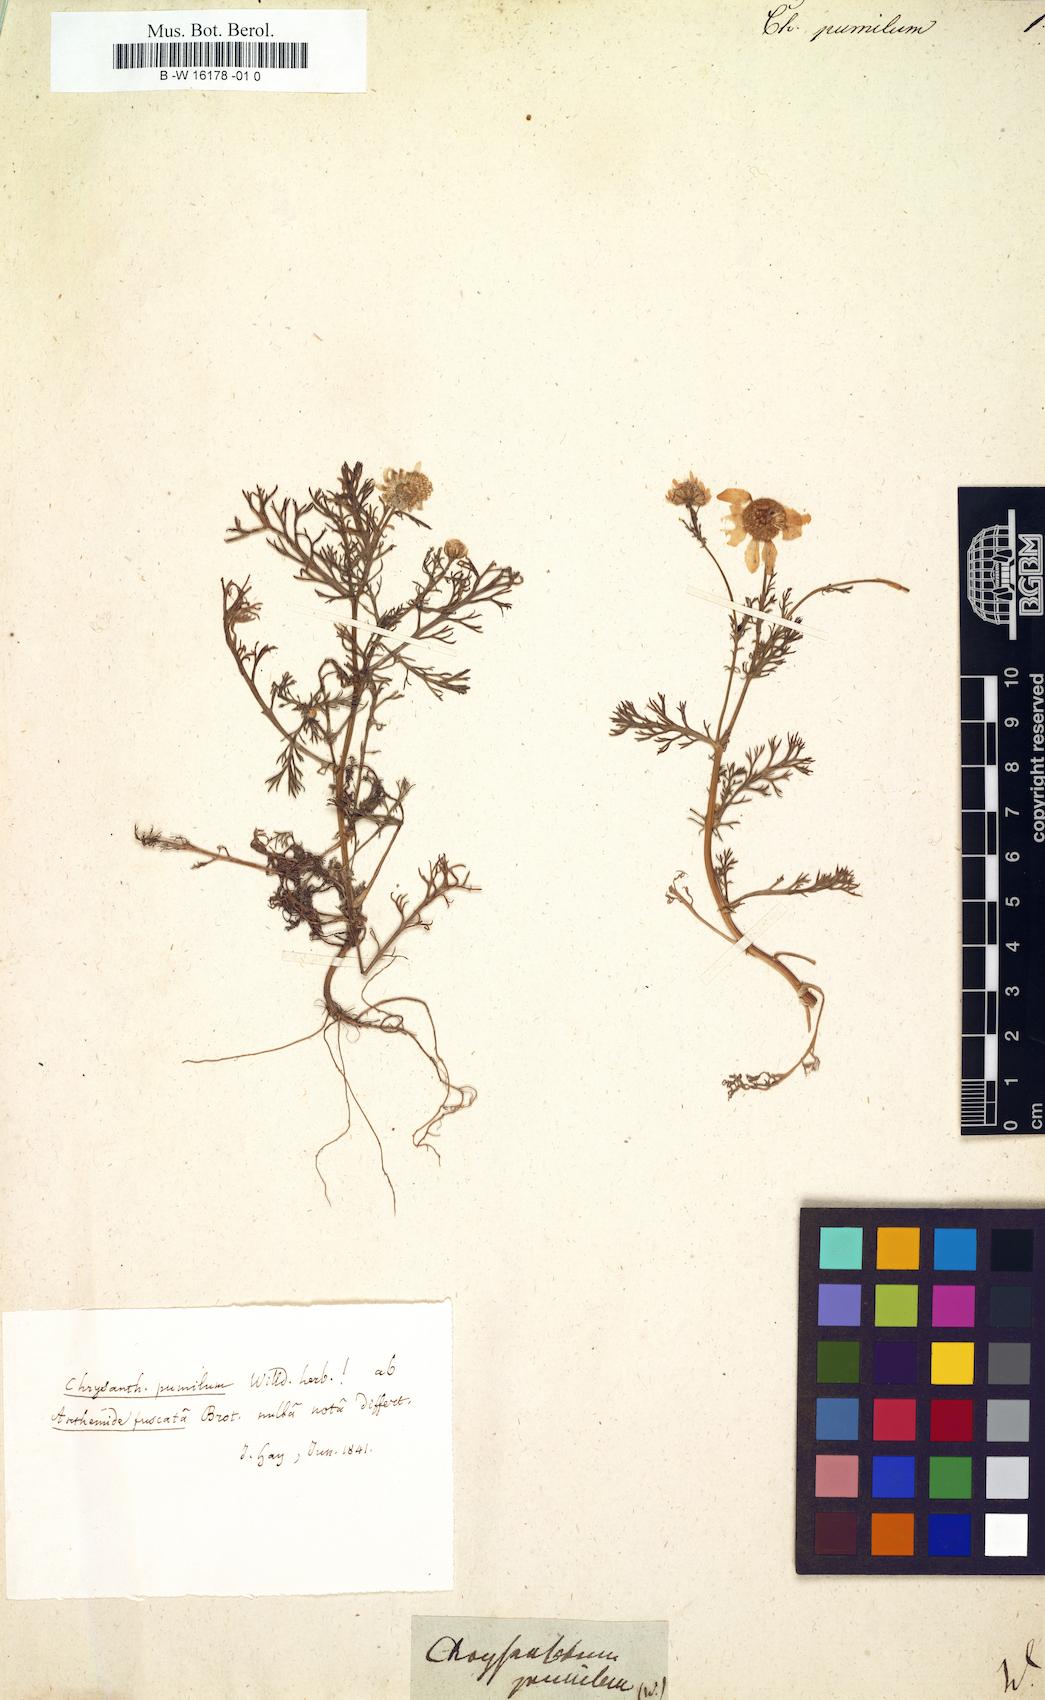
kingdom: Plantae
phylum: Tracheophyta
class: Magnoliopsida
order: Asterales
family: Asteraceae
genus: Chrysanthemum
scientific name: Chrysanthemum pumilum
